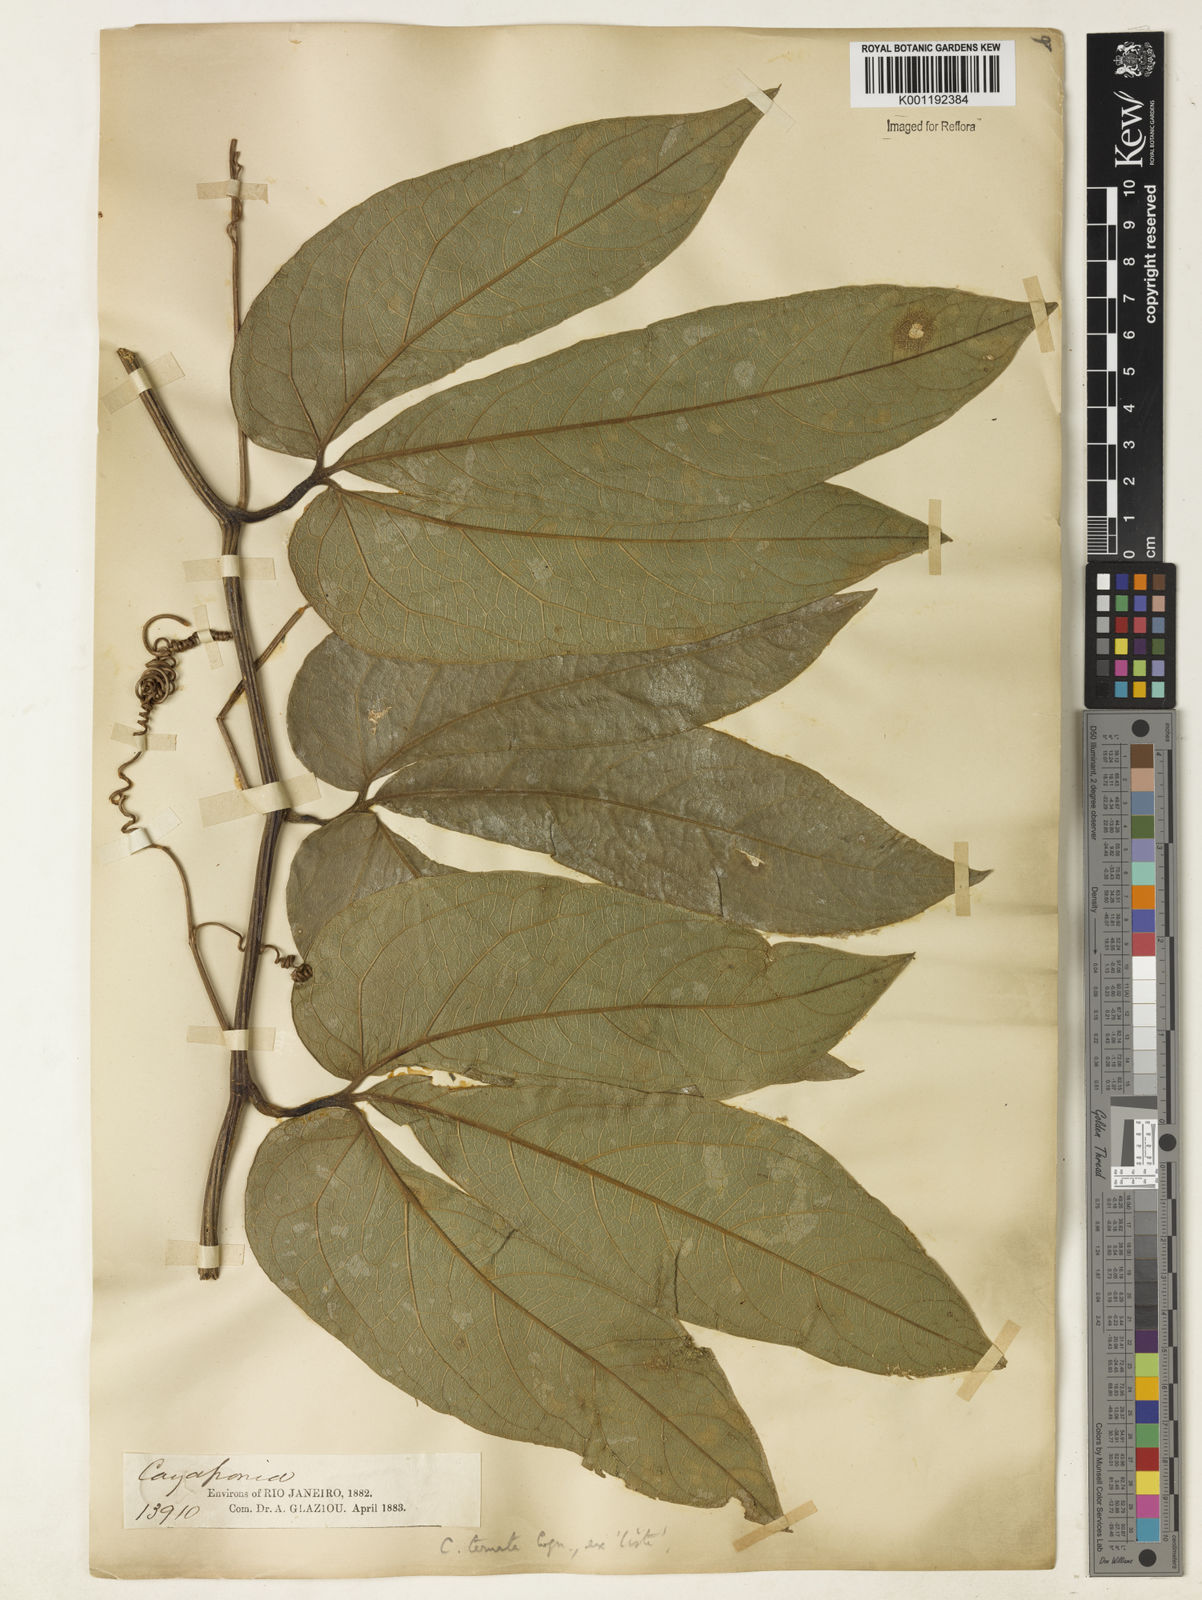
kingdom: Plantae
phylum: Tracheophyta
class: Magnoliopsida
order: Cucurbitales
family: Cucurbitaceae
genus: Cayaponia
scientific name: Cayaponia ternata
